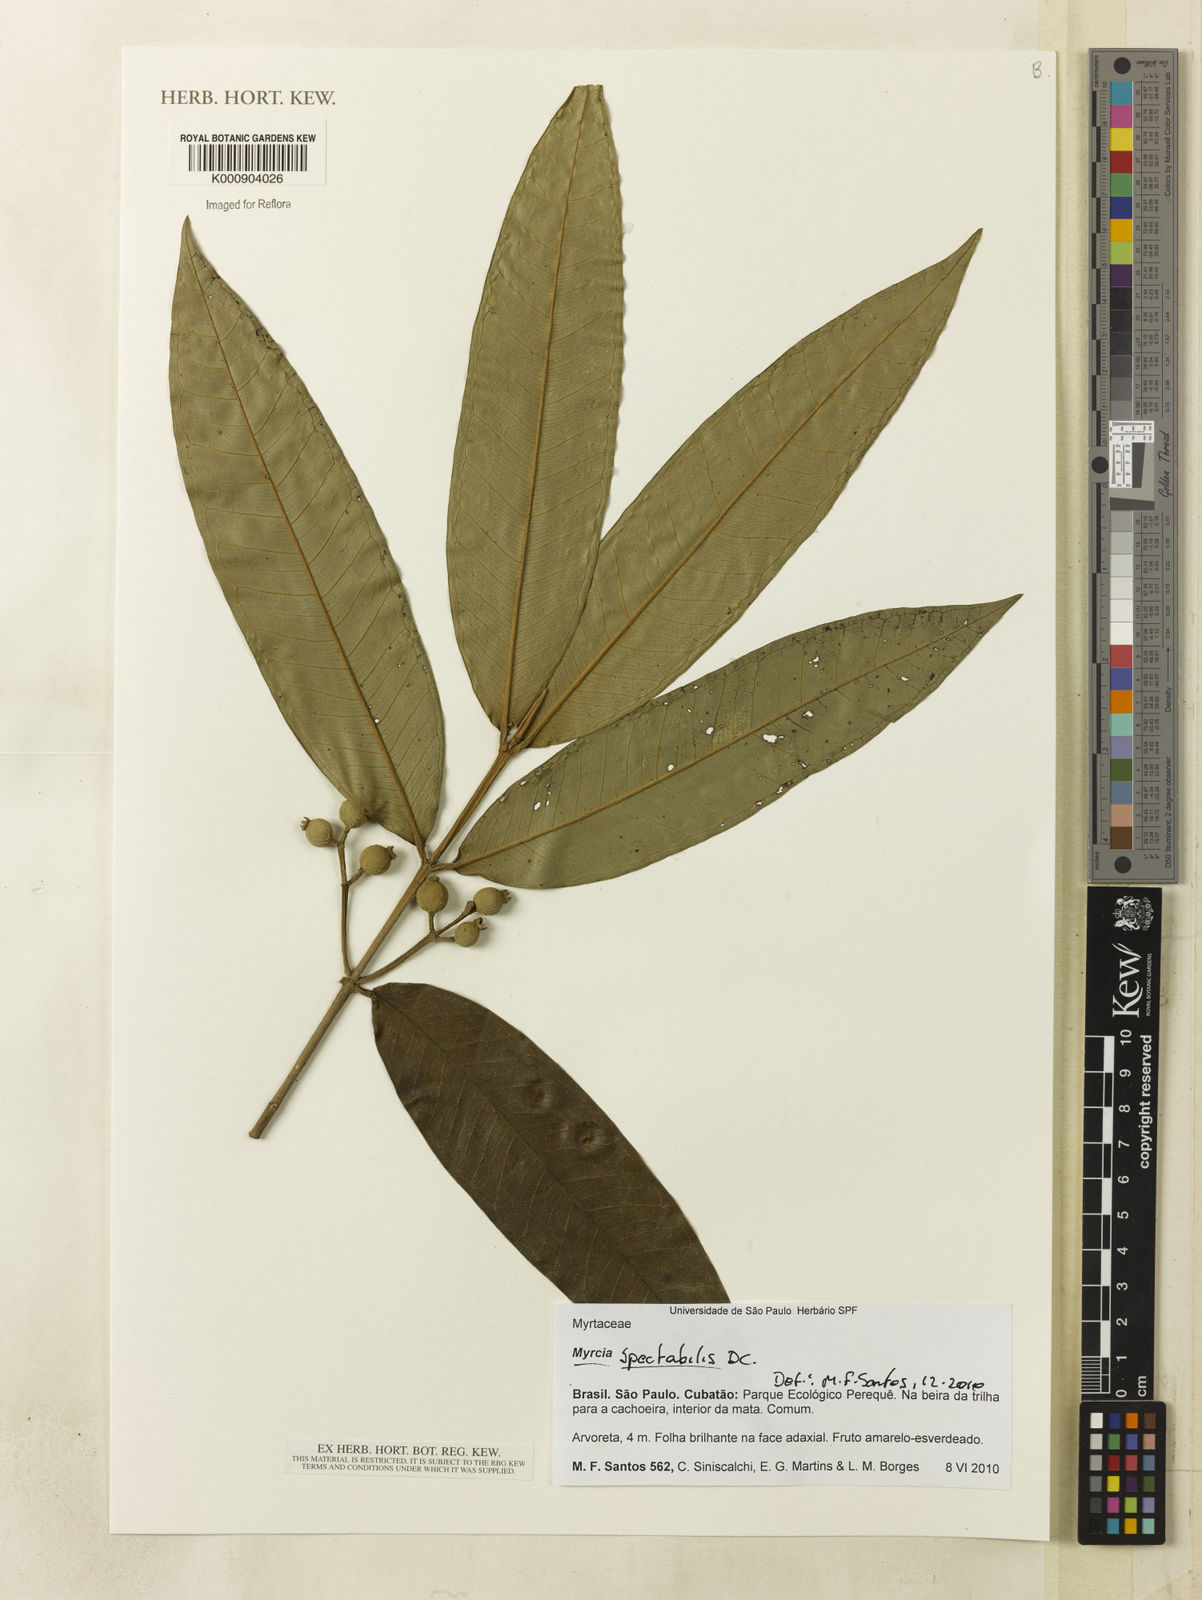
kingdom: Plantae
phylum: Tracheophyta
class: Magnoliopsida
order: Myrtales
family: Myrtaceae
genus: Myrcia
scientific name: Myrcia spectabilis
